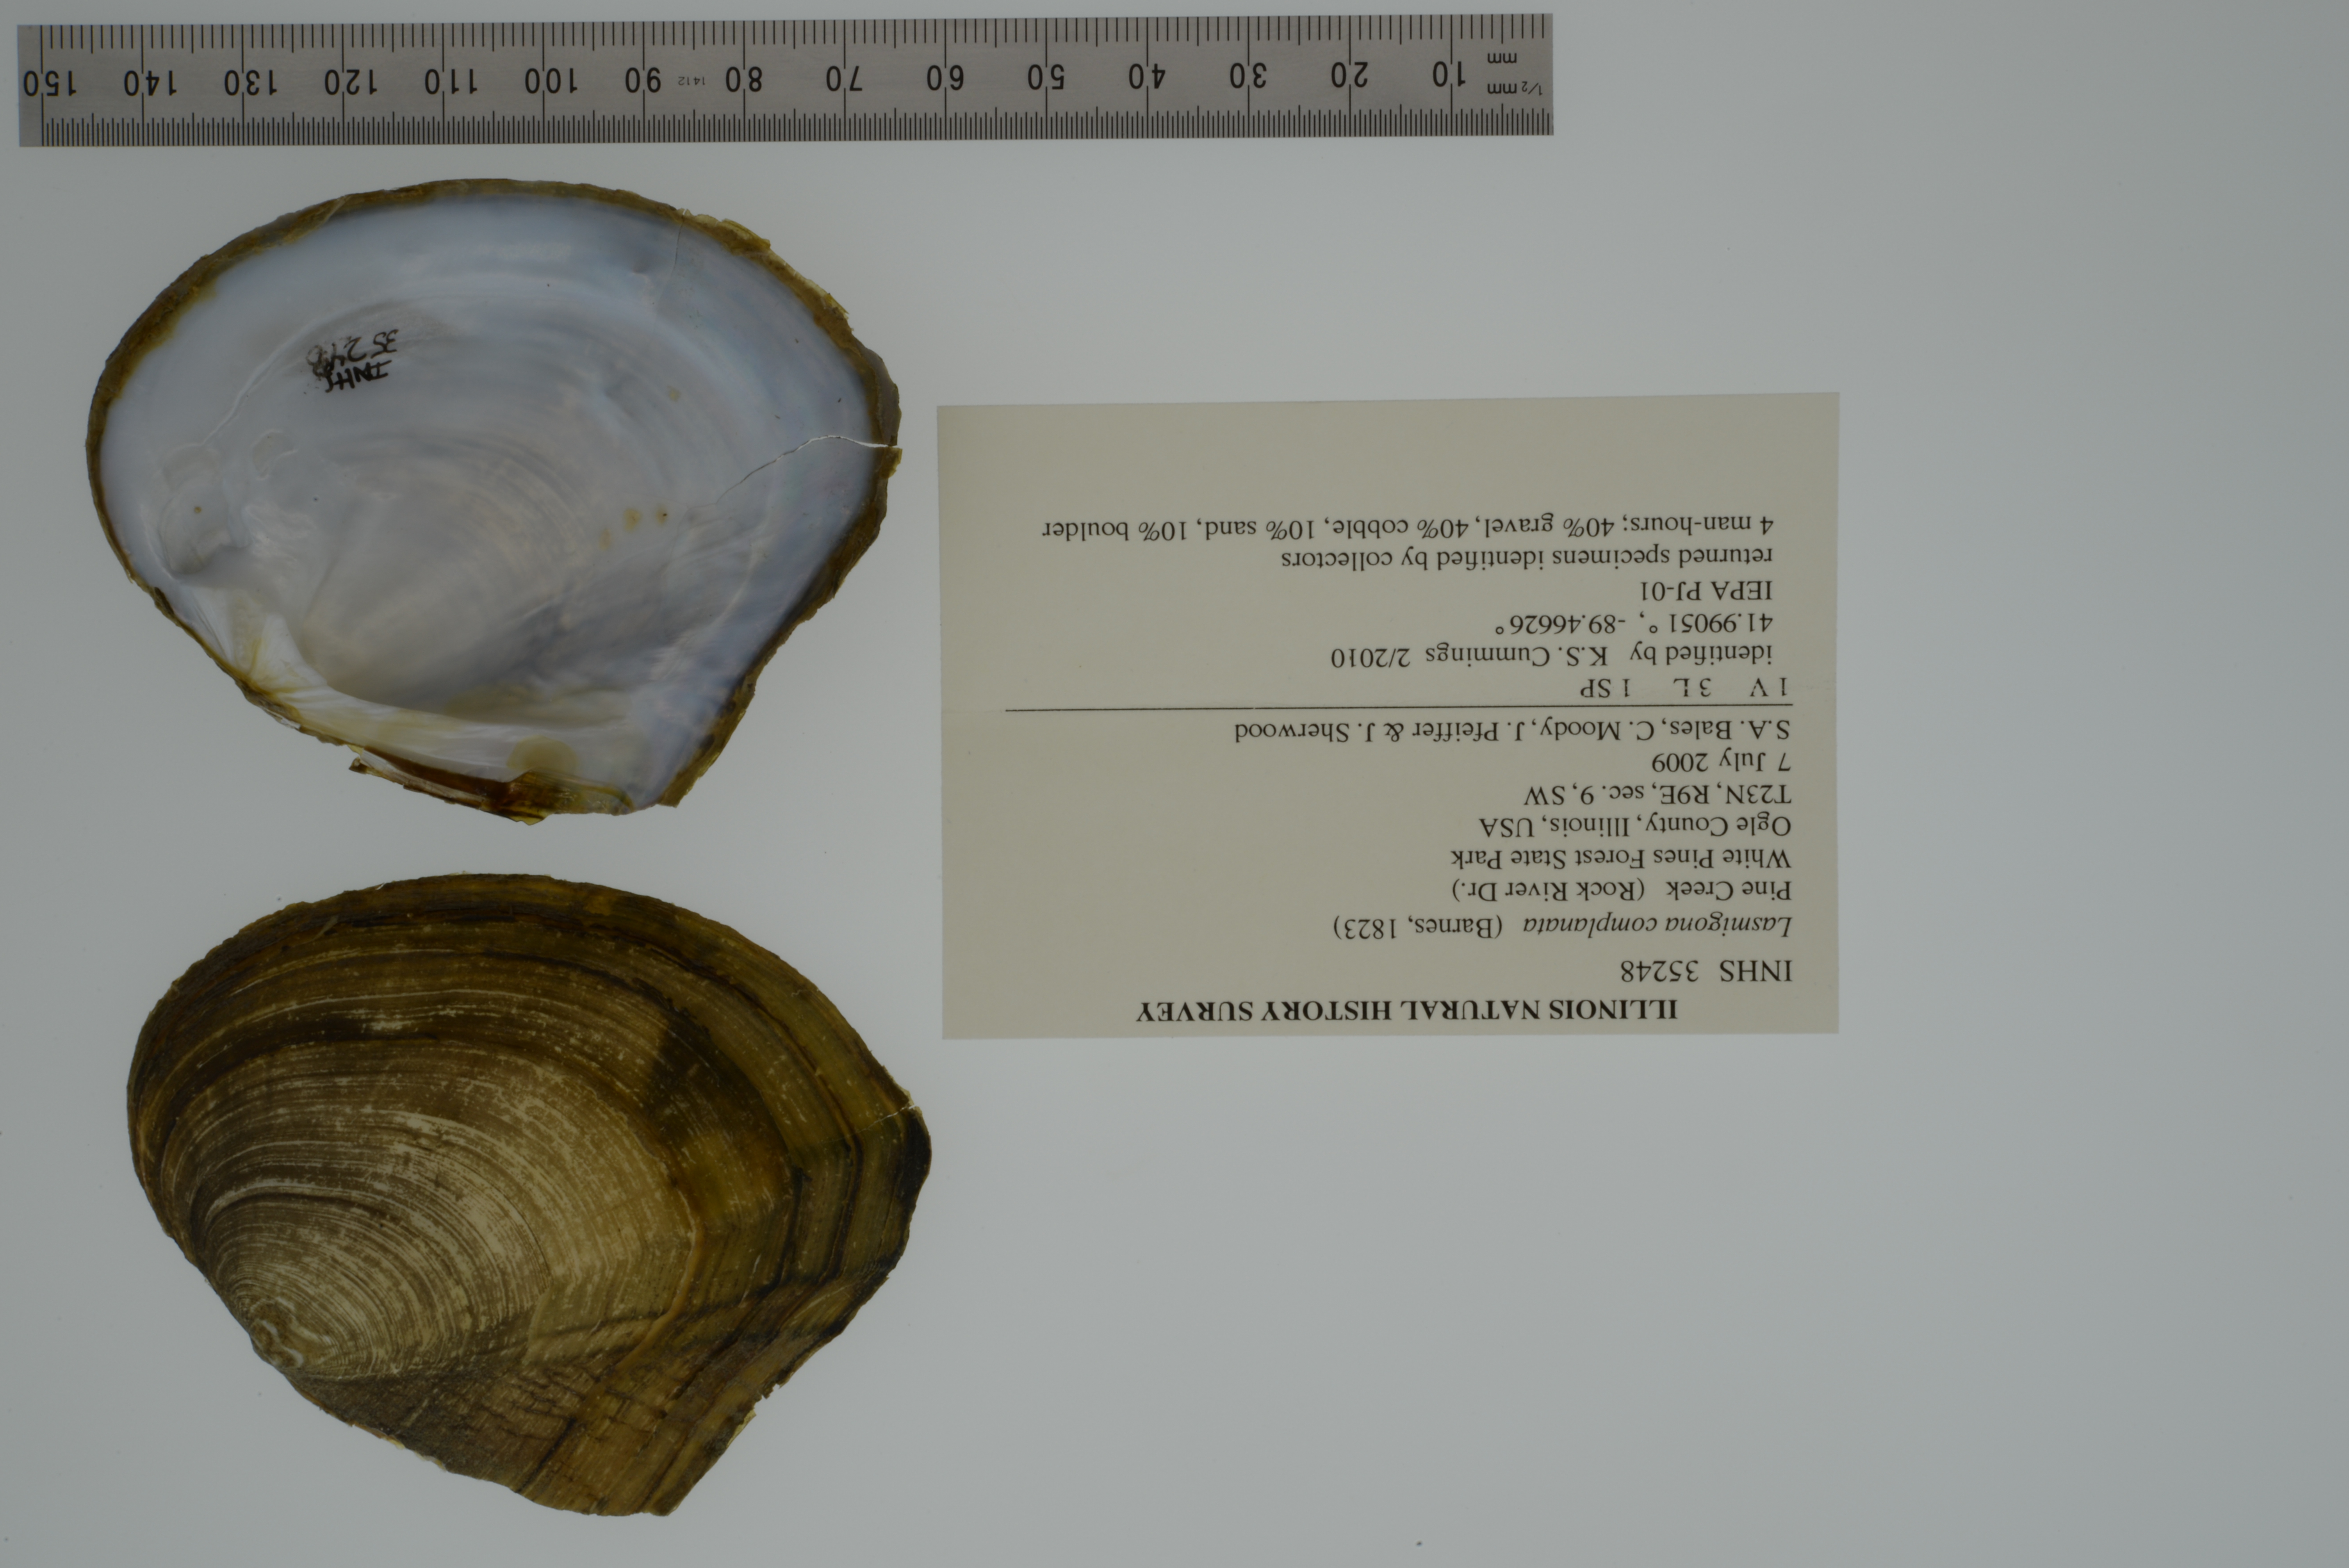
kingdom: Animalia
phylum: Mollusca
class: Bivalvia
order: Unionida
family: Unionidae
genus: Lasmigona
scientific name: Lasmigona complanata
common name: White heelsplitter
